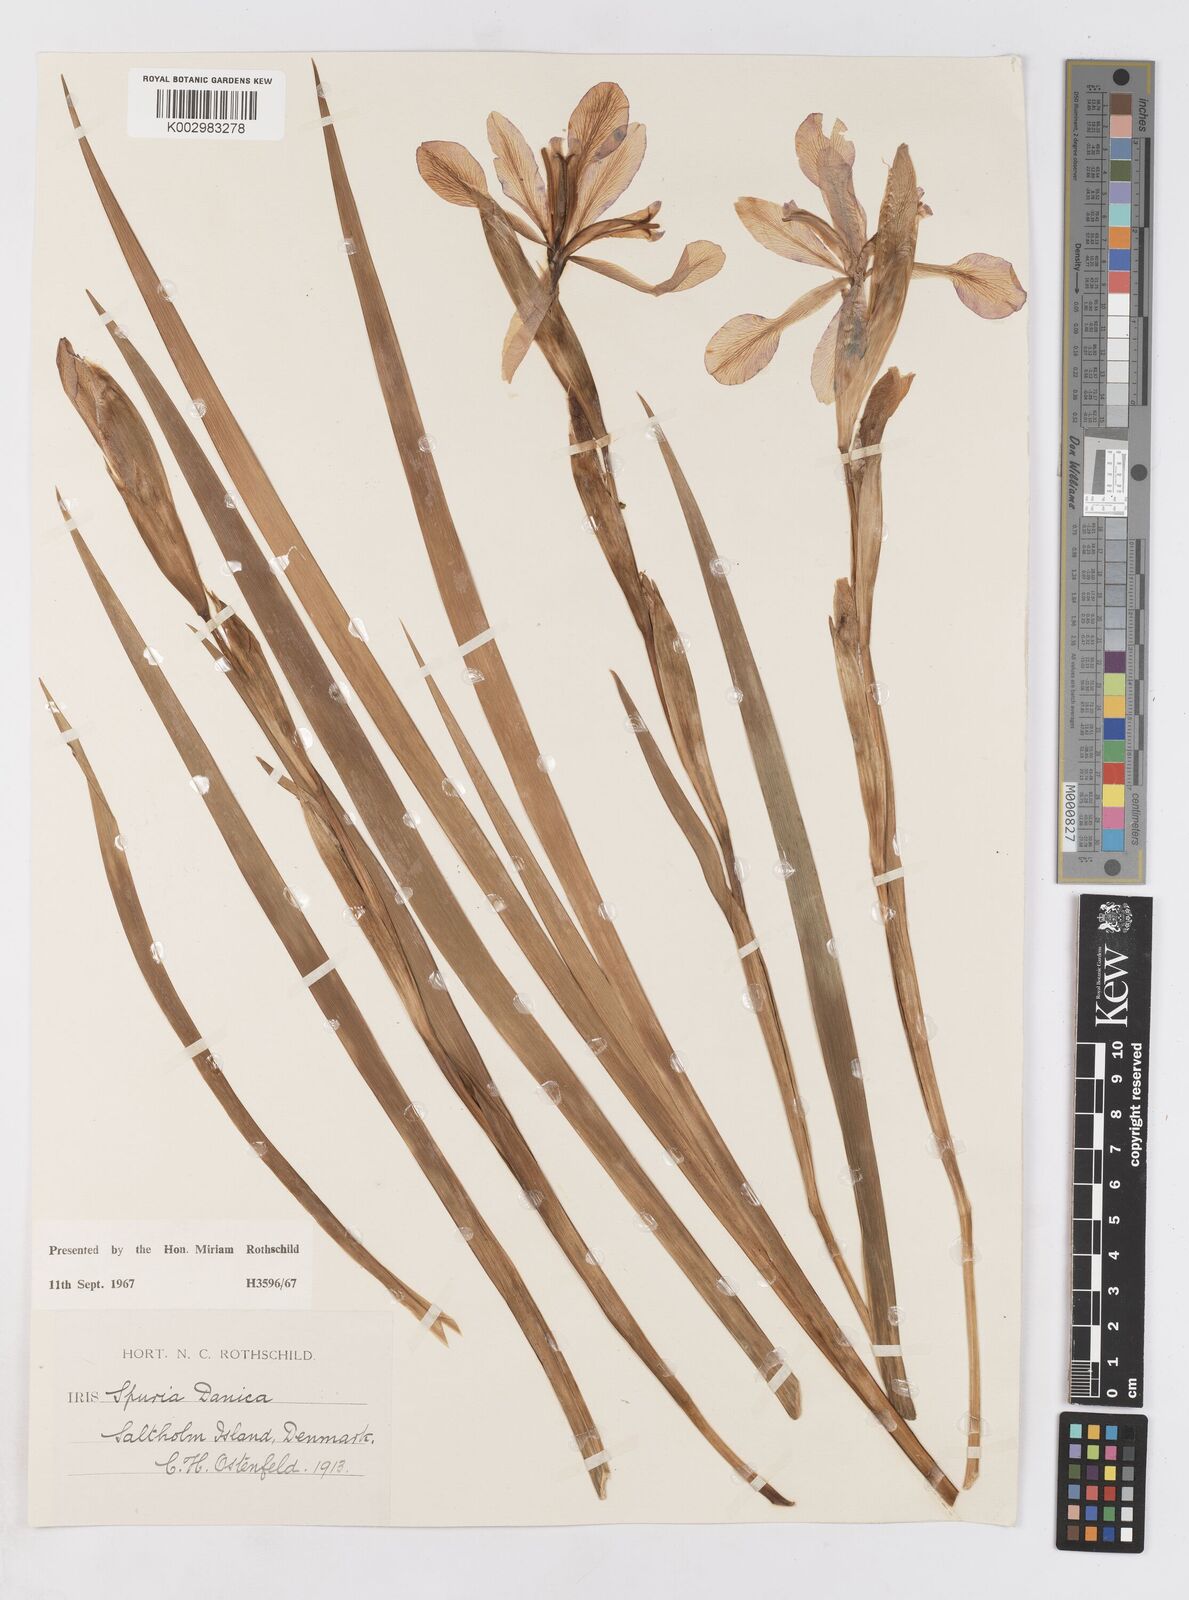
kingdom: Plantae
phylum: Tracheophyta
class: Liliopsida
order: Asparagales
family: Iridaceae
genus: Iris
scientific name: Iris spuria
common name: Blue iris
